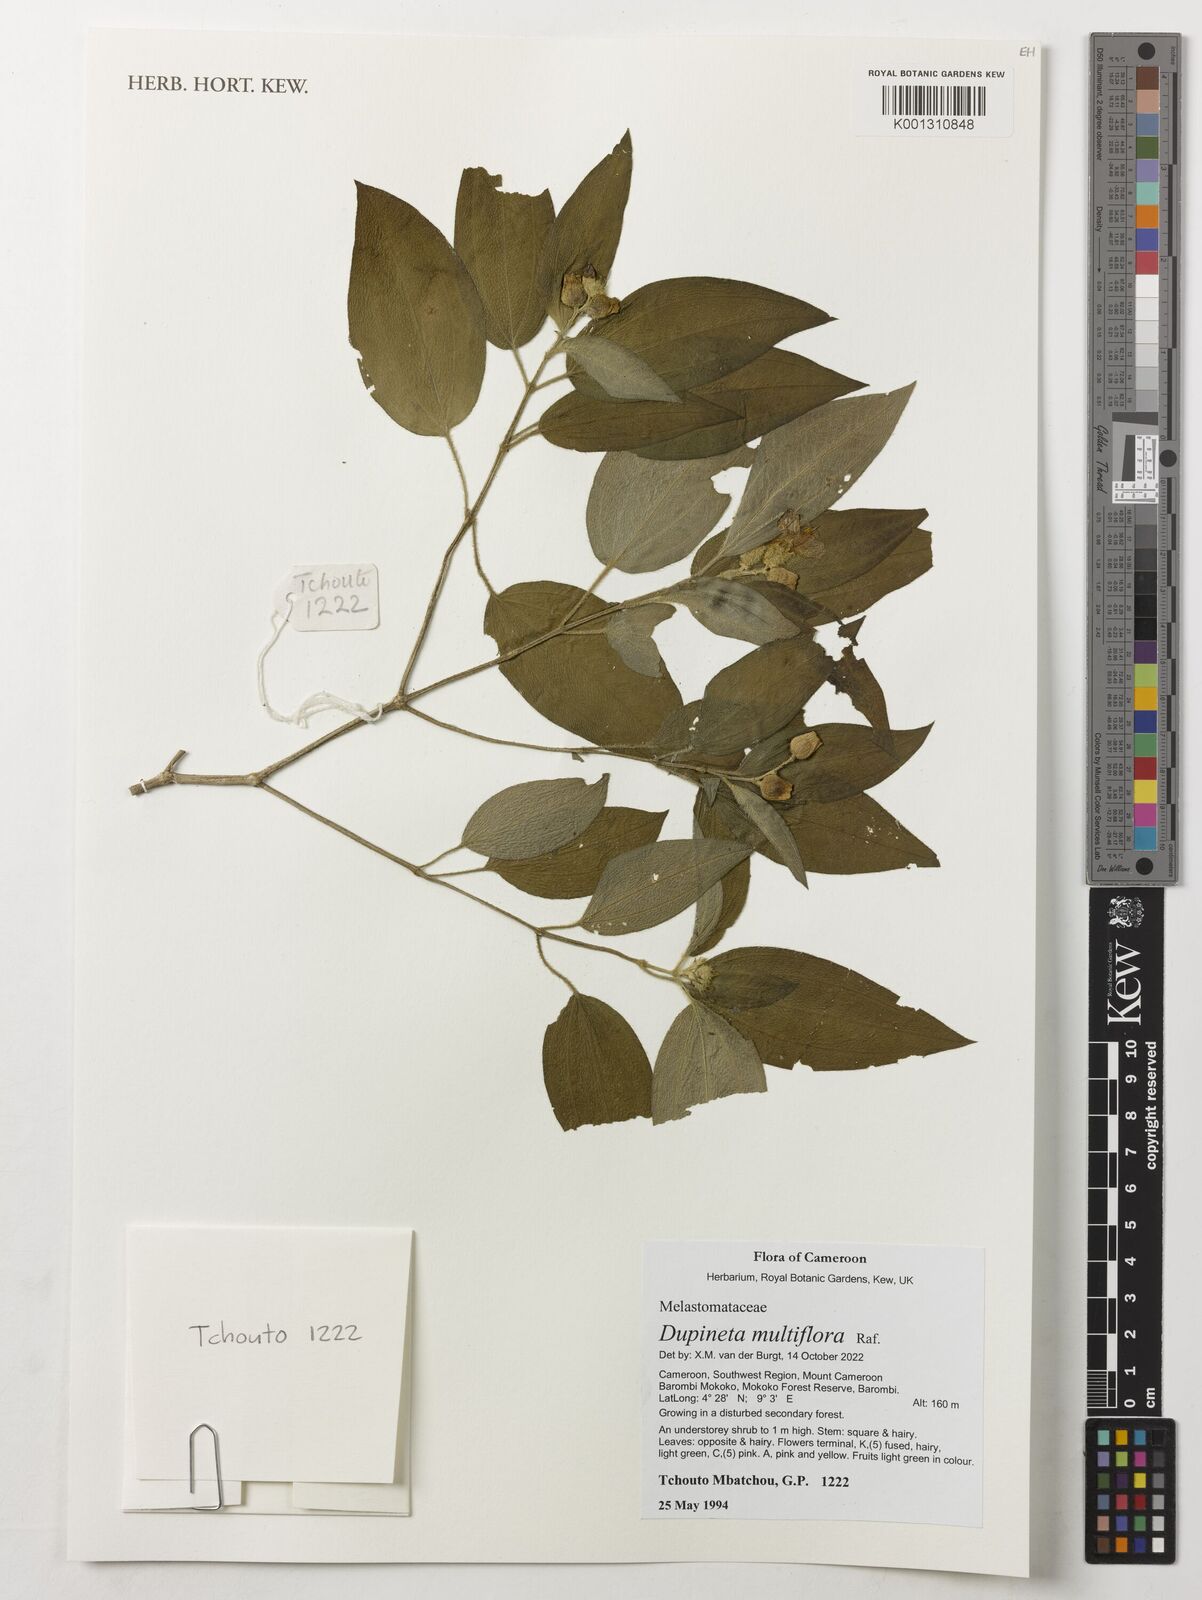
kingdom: Plantae
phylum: Tracheophyta
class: Magnoliopsida
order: Myrtales
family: Melastomataceae
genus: Dupineta
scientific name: Dupineta multiflora
